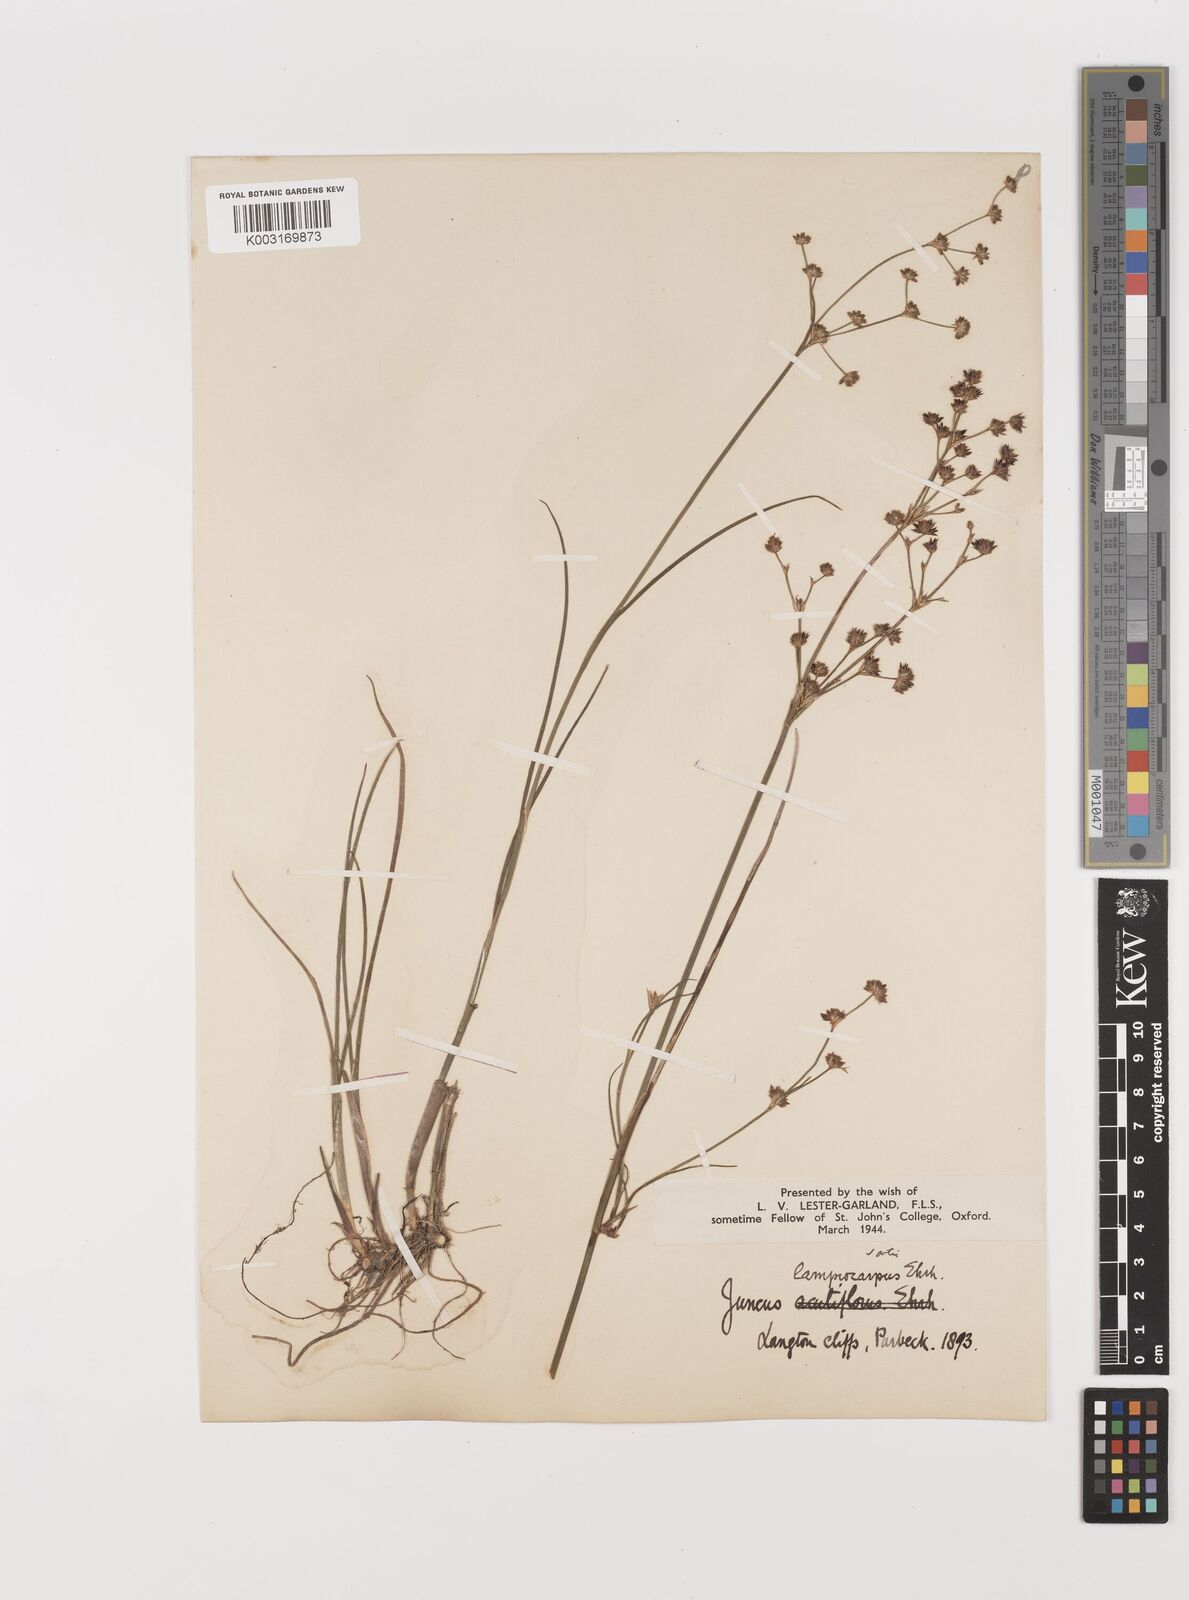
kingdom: Plantae
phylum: Tracheophyta
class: Liliopsida
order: Poales
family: Juncaceae
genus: Juncus
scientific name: Juncus articulatus
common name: Jointed rush
